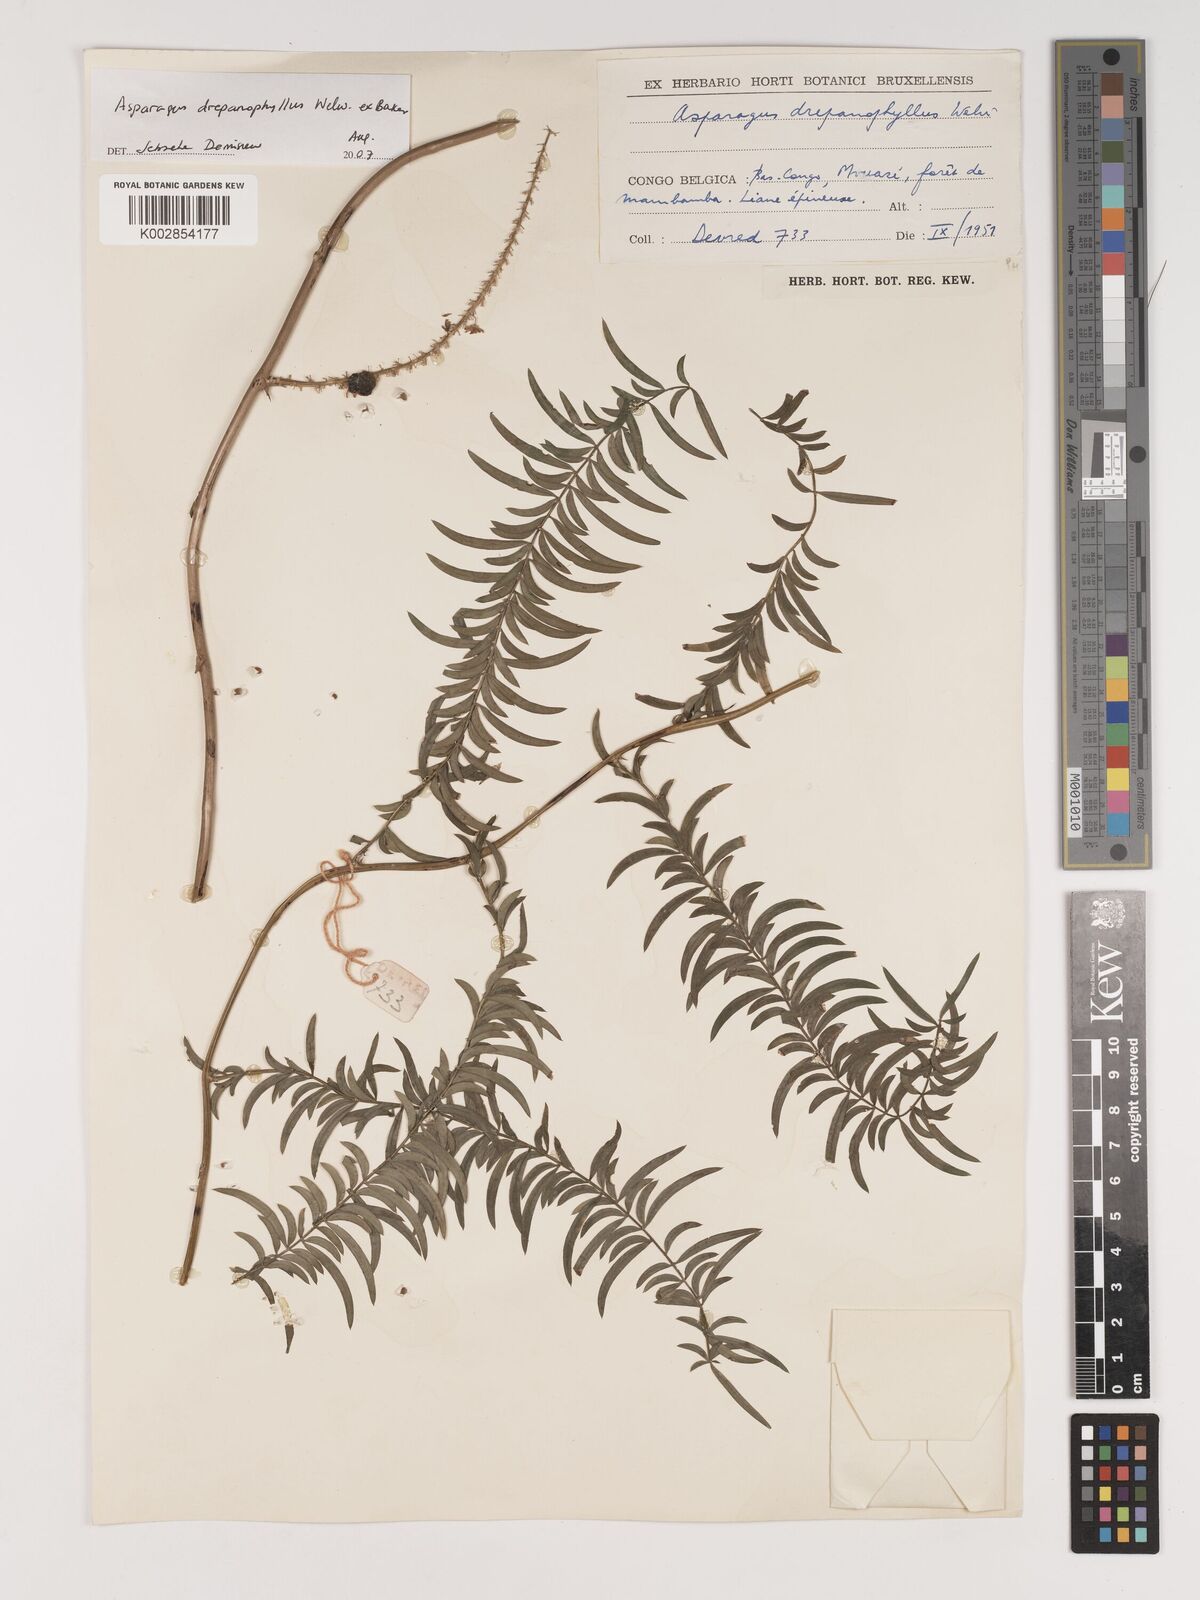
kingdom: Plantae
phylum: Tracheophyta
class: Liliopsida
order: Asparagales
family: Asparagaceae
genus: Asparagus
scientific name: Asparagus drepanophyllus
